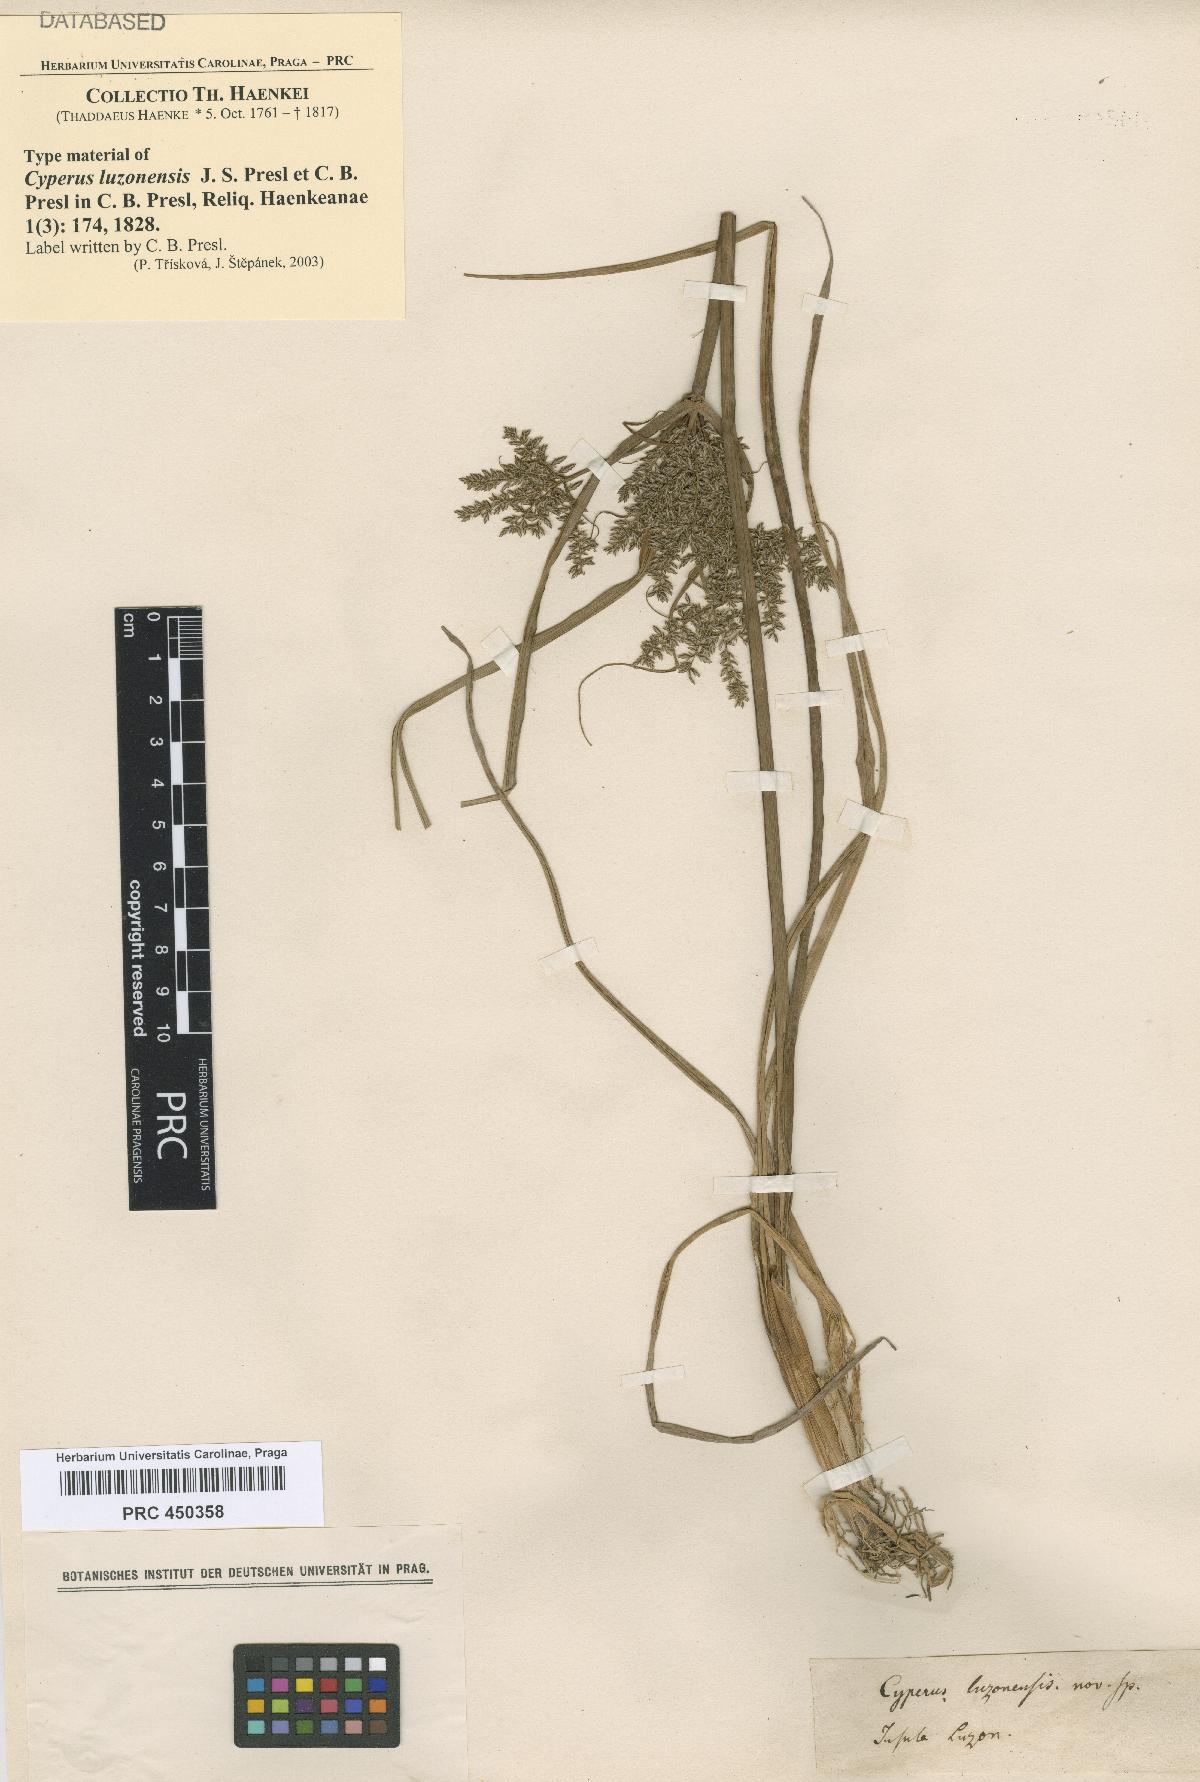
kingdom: Plantae
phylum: Tracheophyta
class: Liliopsida
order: Poales
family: Cyperaceae
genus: Cyperus
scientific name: Cyperus compactus
